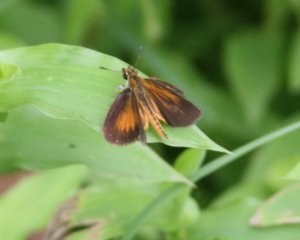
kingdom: Animalia
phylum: Arthropoda
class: Insecta
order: Lepidoptera
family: Hesperiidae
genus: Ancyloxypha
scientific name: Ancyloxypha numitor
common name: Least Skipper
